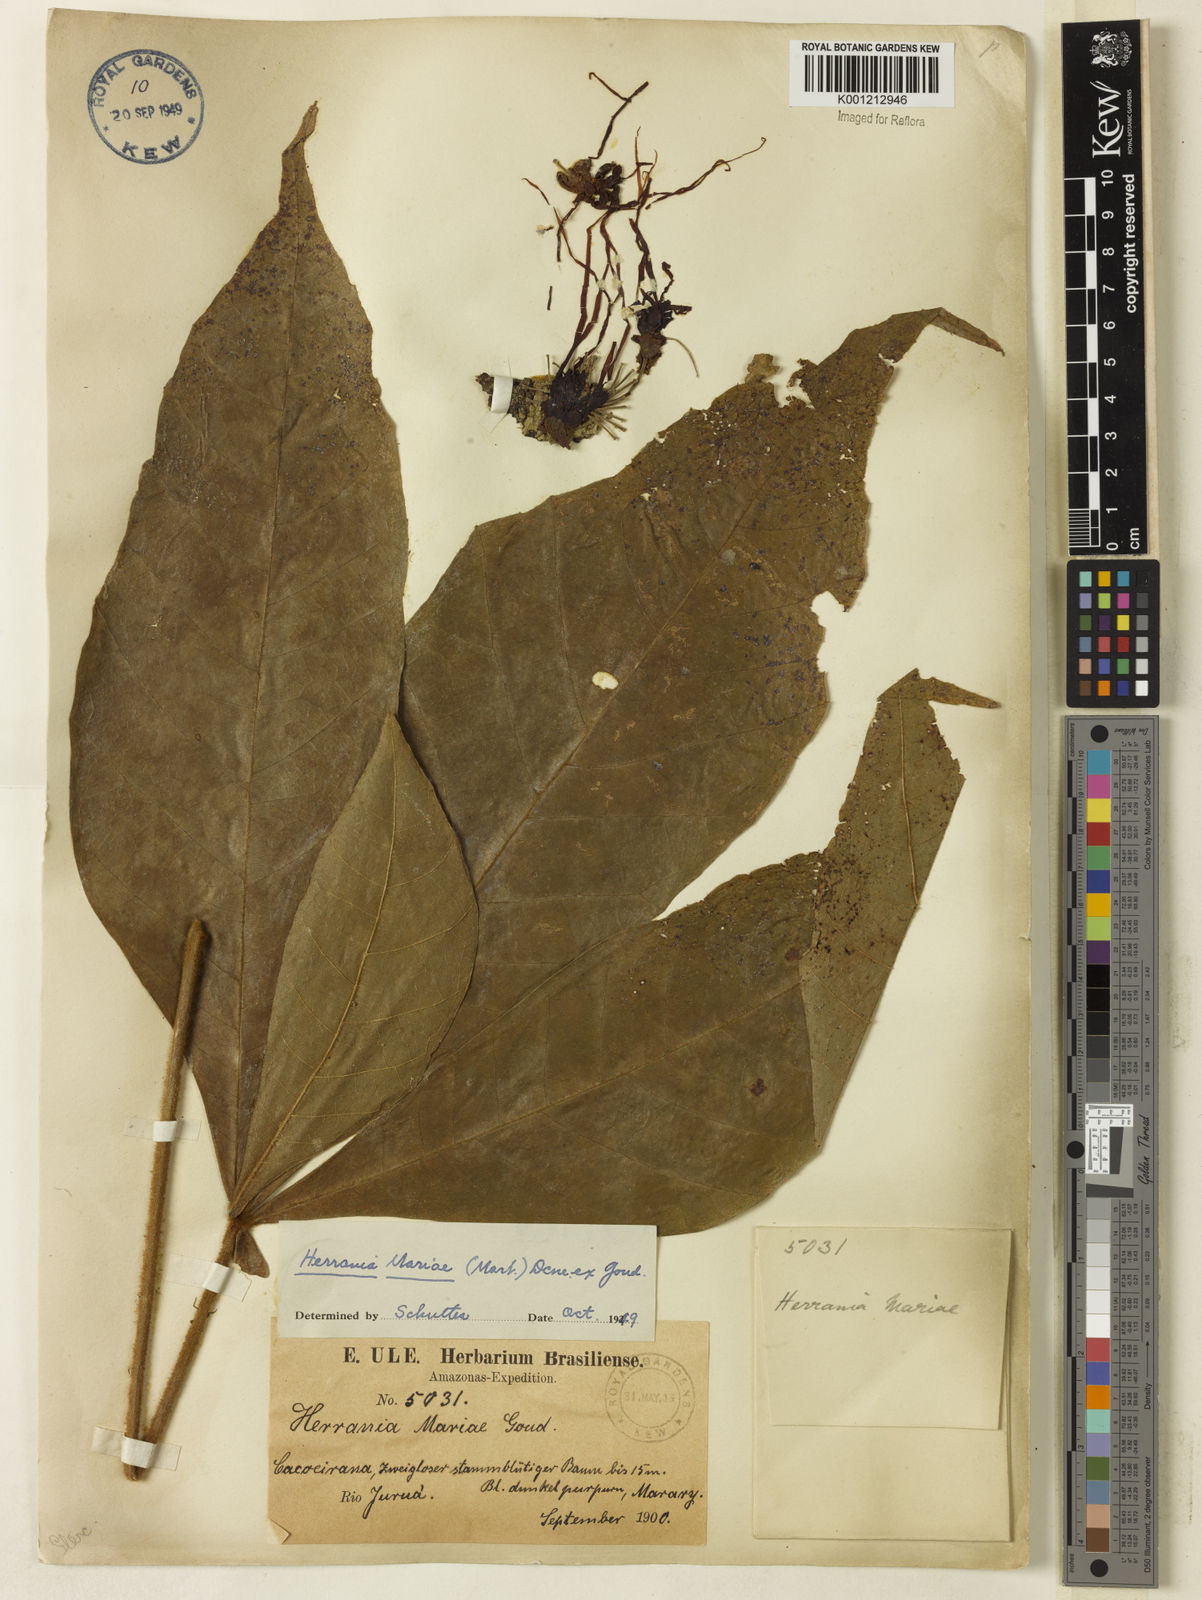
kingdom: Plantae
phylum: Tracheophyta
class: Magnoliopsida
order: Malvales
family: Malvaceae
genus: Herrania
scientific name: Herrania nitida
